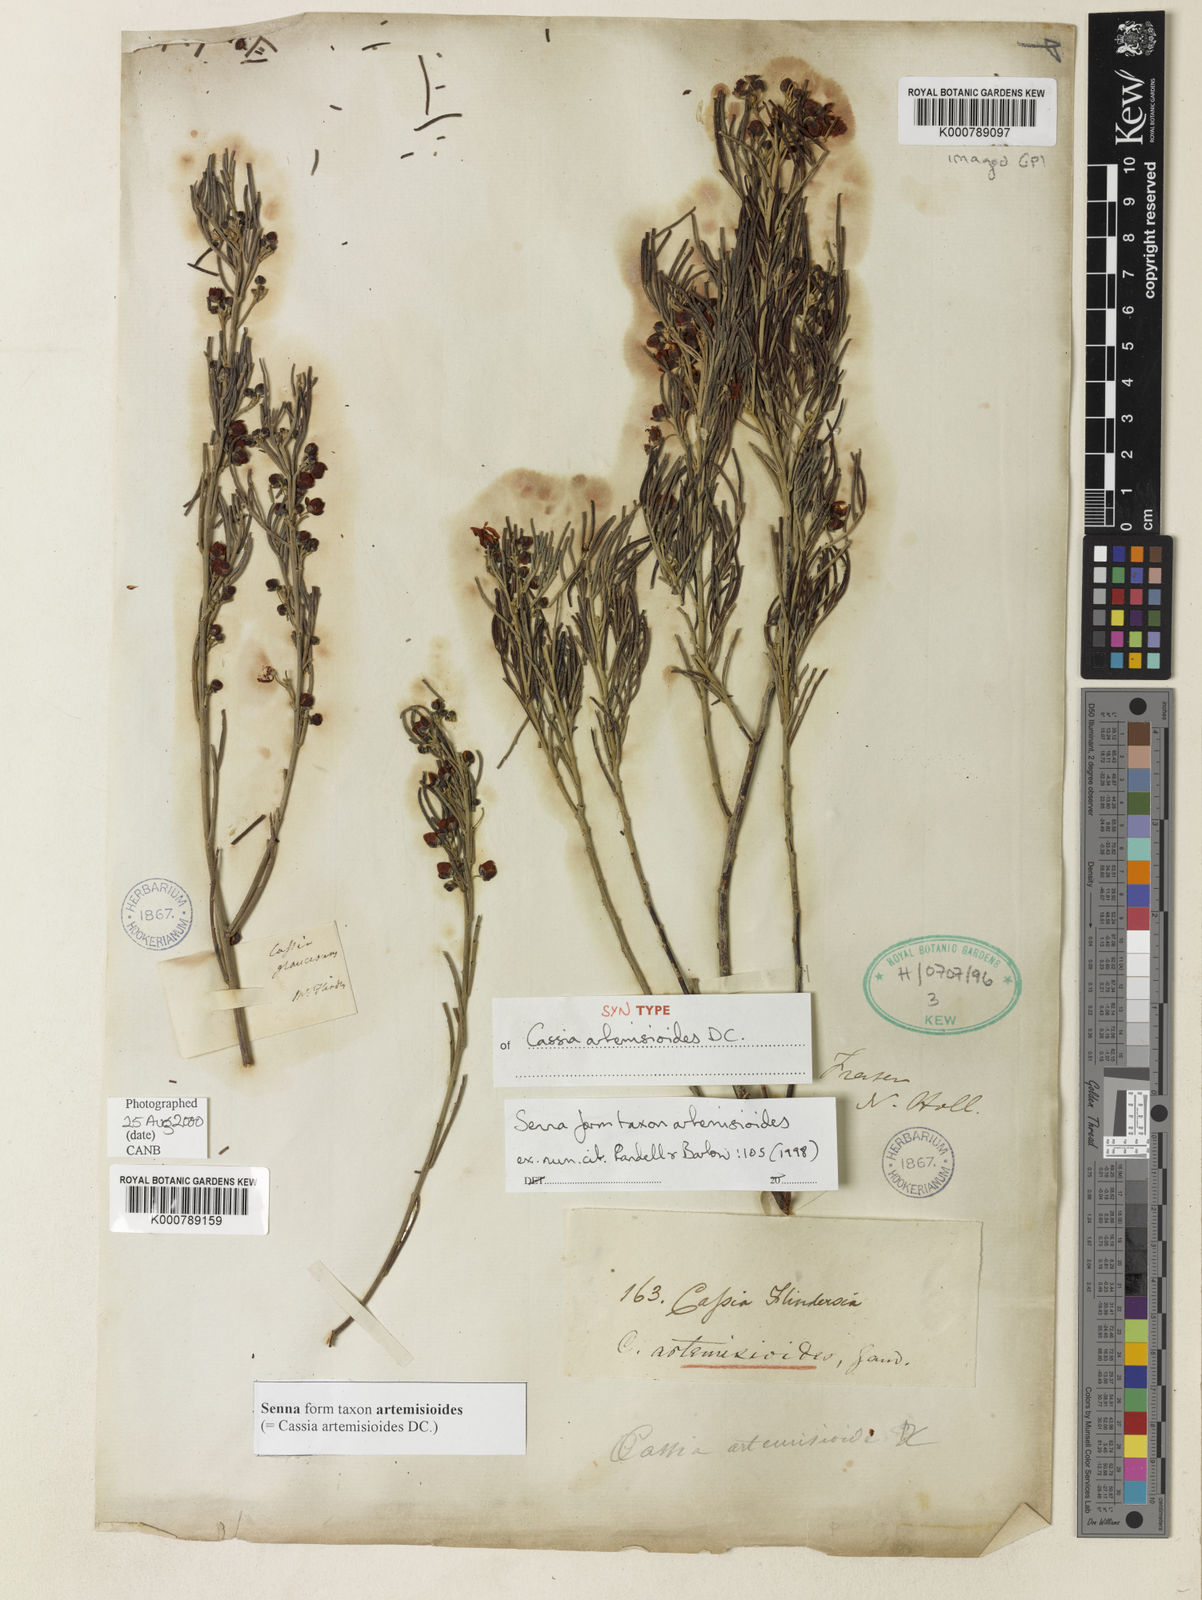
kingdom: Plantae
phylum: Tracheophyta
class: Magnoliopsida
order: Fabales
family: Fabaceae
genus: Senna
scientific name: Senna artemisioides
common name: Burnt-leaved acacia
